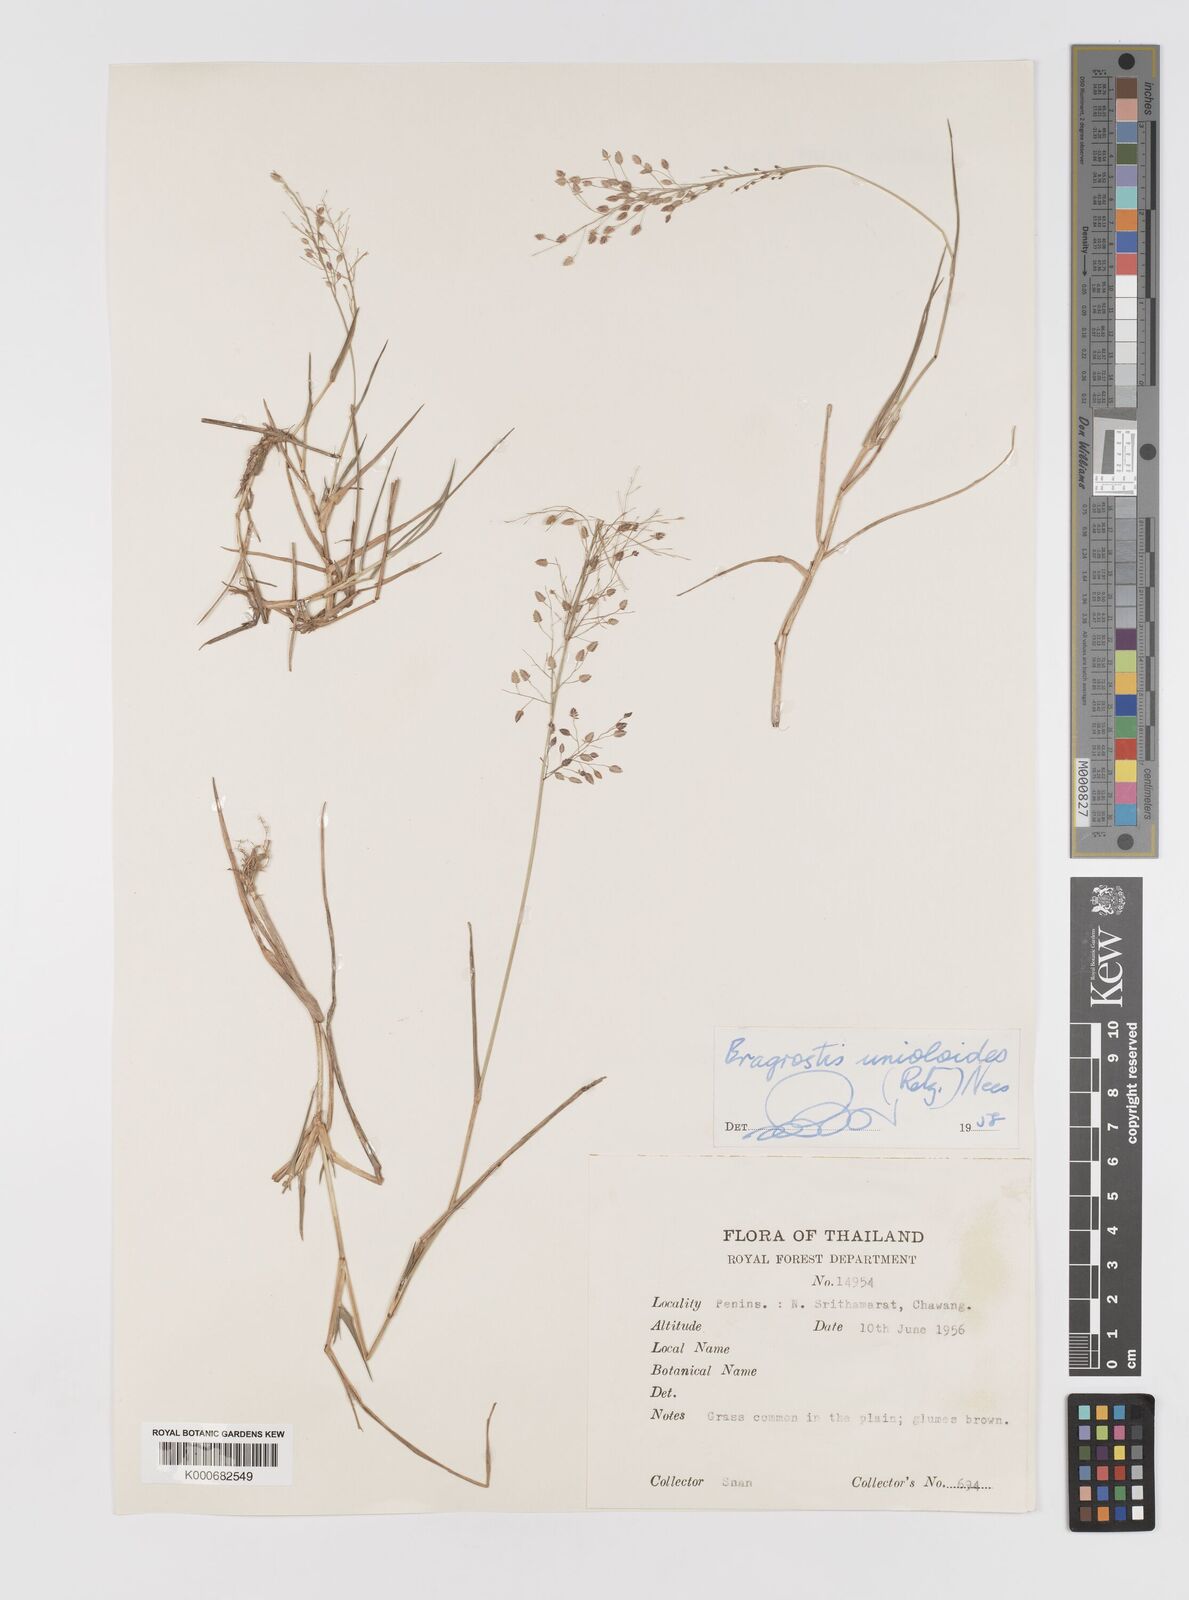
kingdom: Plantae
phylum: Tracheophyta
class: Liliopsida
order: Poales
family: Poaceae
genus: Eragrostis
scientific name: Eragrostis unioloides
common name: Chinese lovegrass
